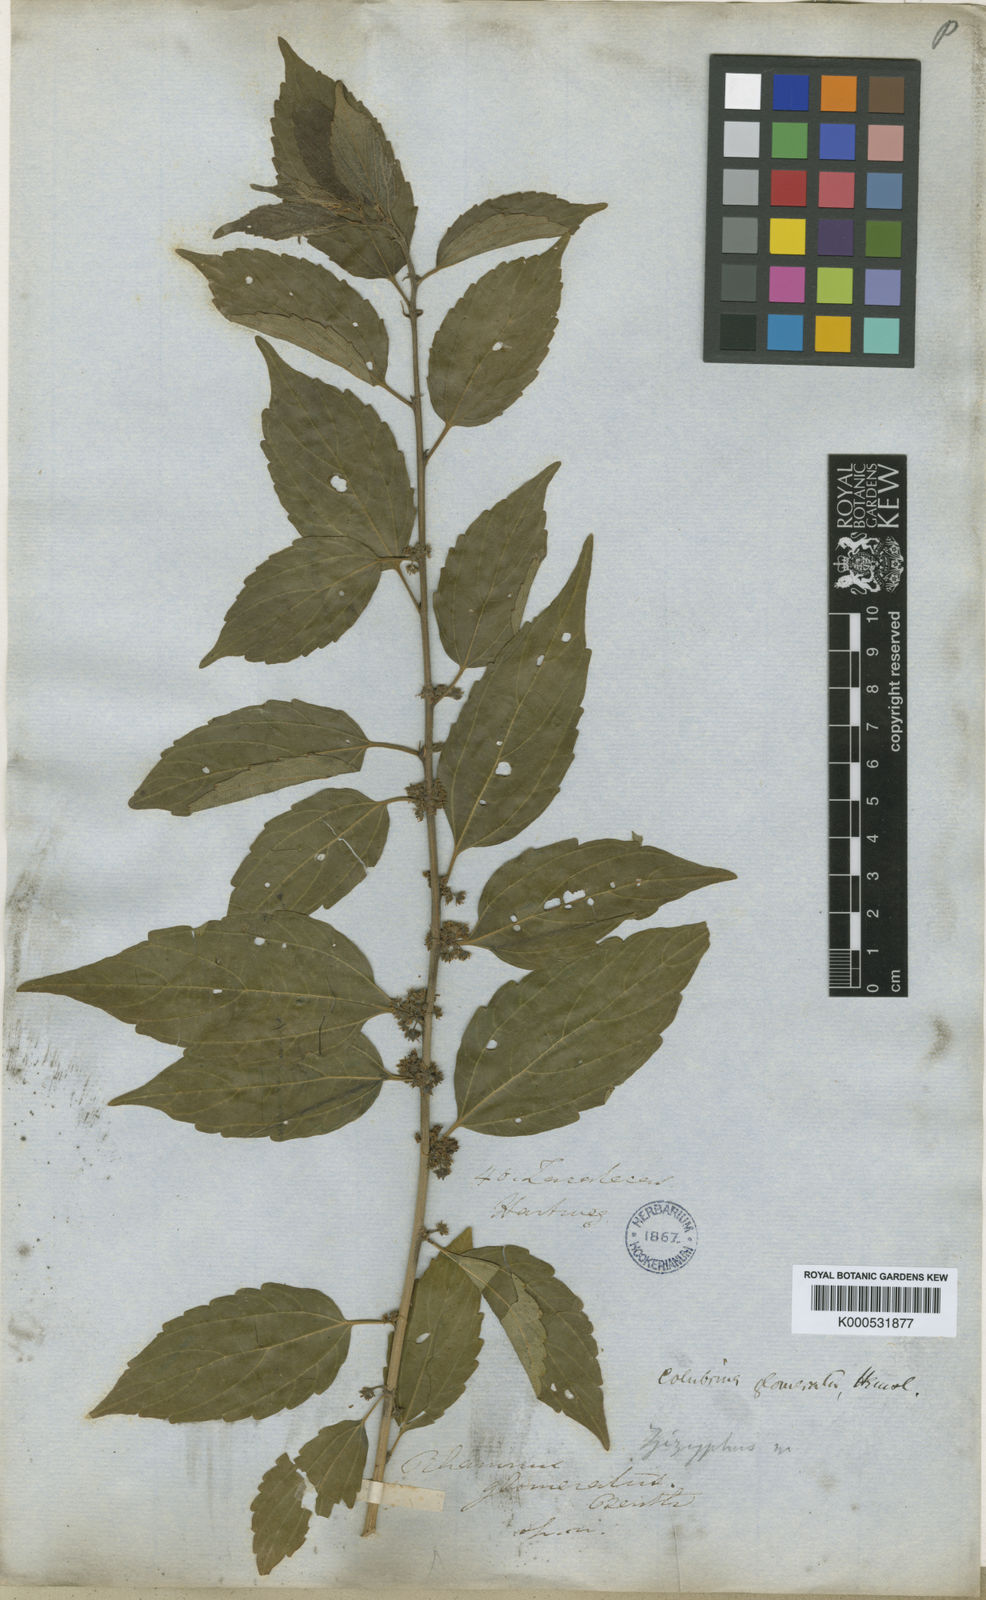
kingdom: Plantae
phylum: Tracheophyta
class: Magnoliopsida
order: Rosales
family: Rhamnaceae
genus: Colubrina
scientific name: Colubrina triflora
